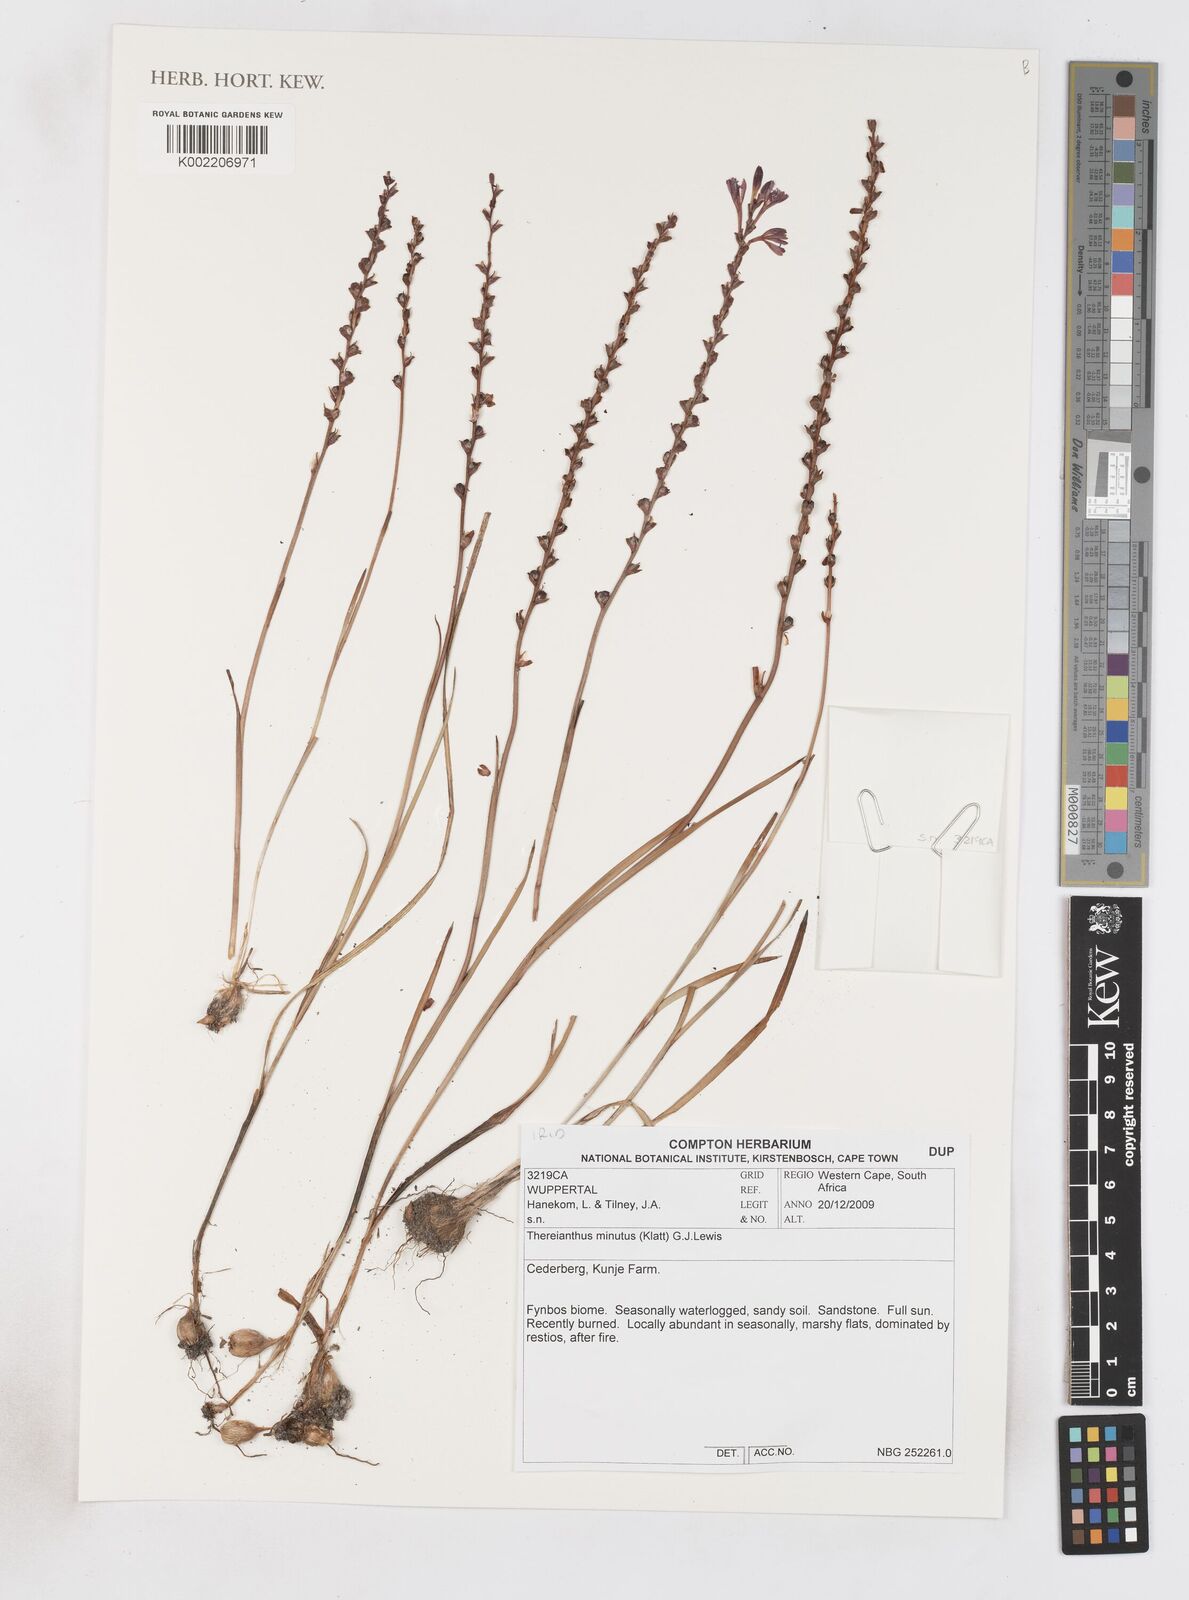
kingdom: Plantae
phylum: Tracheophyta
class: Liliopsida
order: Asparagales
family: Iridaceae
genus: Thereianthus
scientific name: Thereianthus minutus
